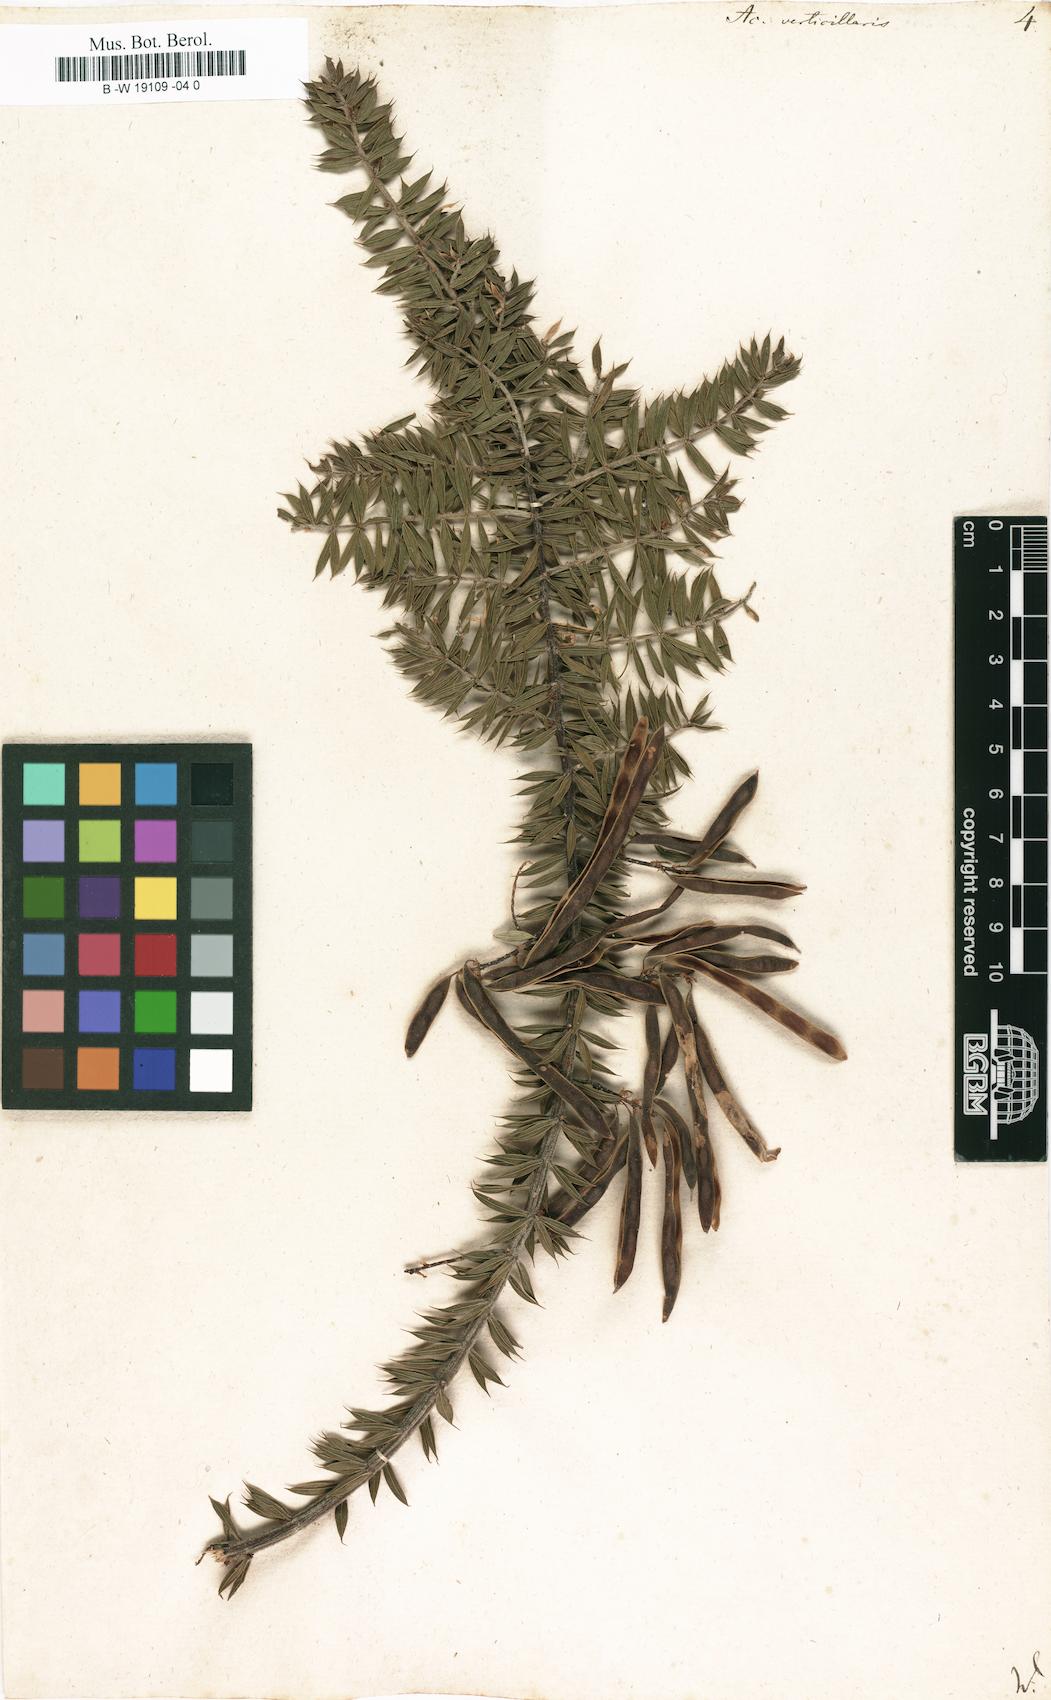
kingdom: Plantae
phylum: Tracheophyta
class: Magnoliopsida
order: Fabales
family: Fabaceae
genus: Acacia
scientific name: Acacia verticillata
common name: Prickly moses
